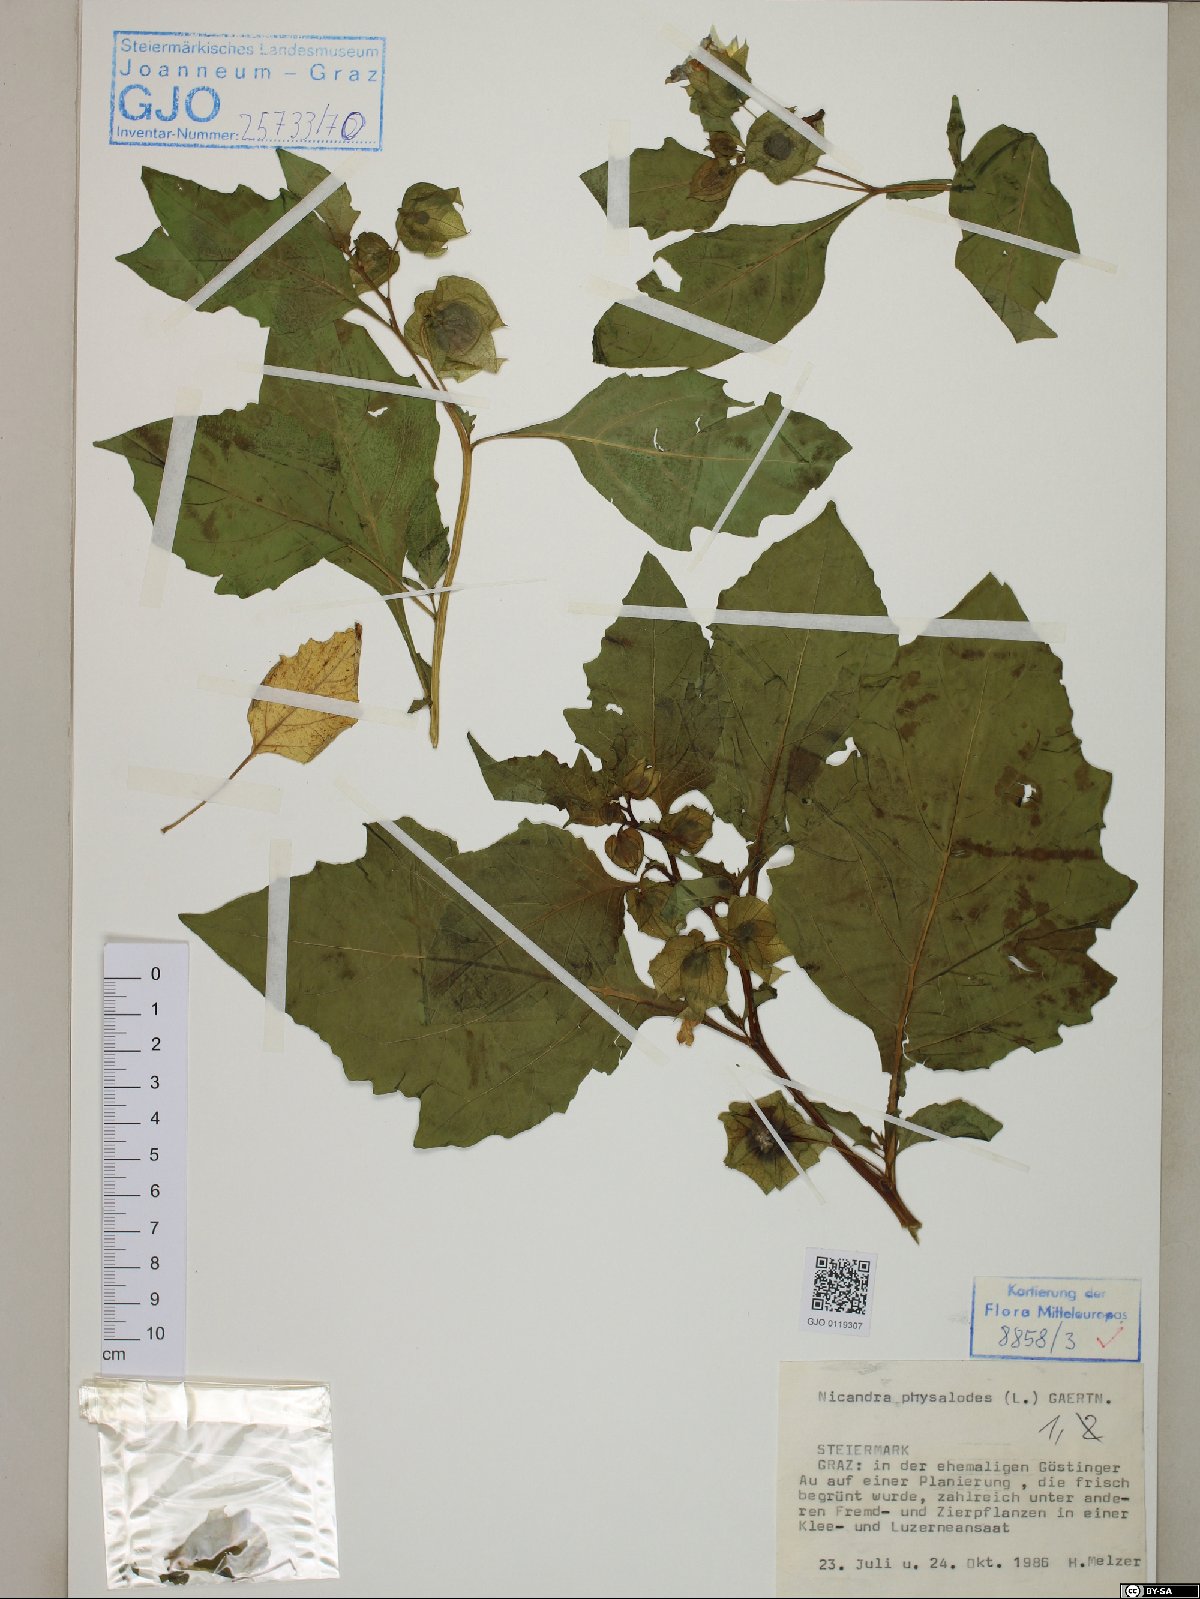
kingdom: Plantae
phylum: Tracheophyta
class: Magnoliopsida
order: Solanales
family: Solanaceae
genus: Nicandra
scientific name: Nicandra physalodes
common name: Apple-of-peru
